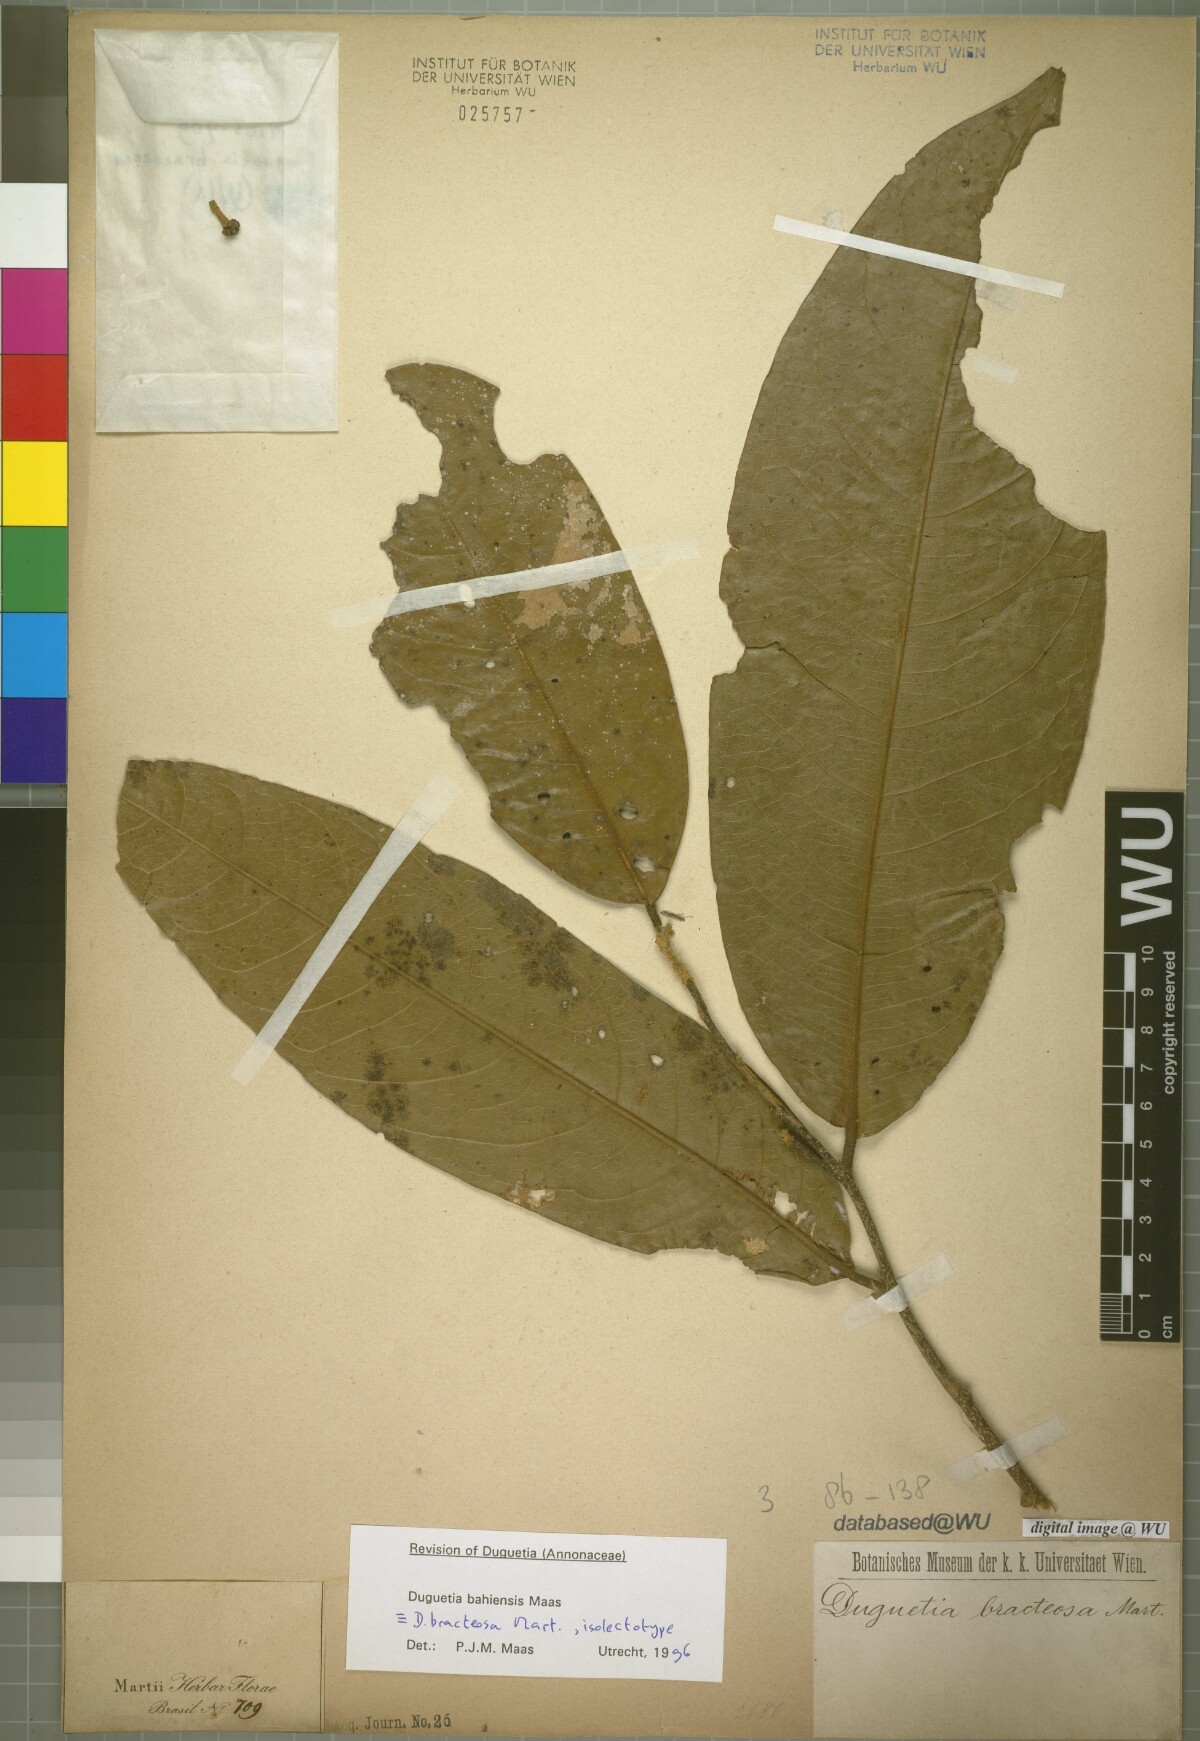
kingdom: Plantae
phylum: Tracheophyta
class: Magnoliopsida
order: Magnoliales
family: Annonaceae
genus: Duguetia
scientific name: Duguetia bahiensis
